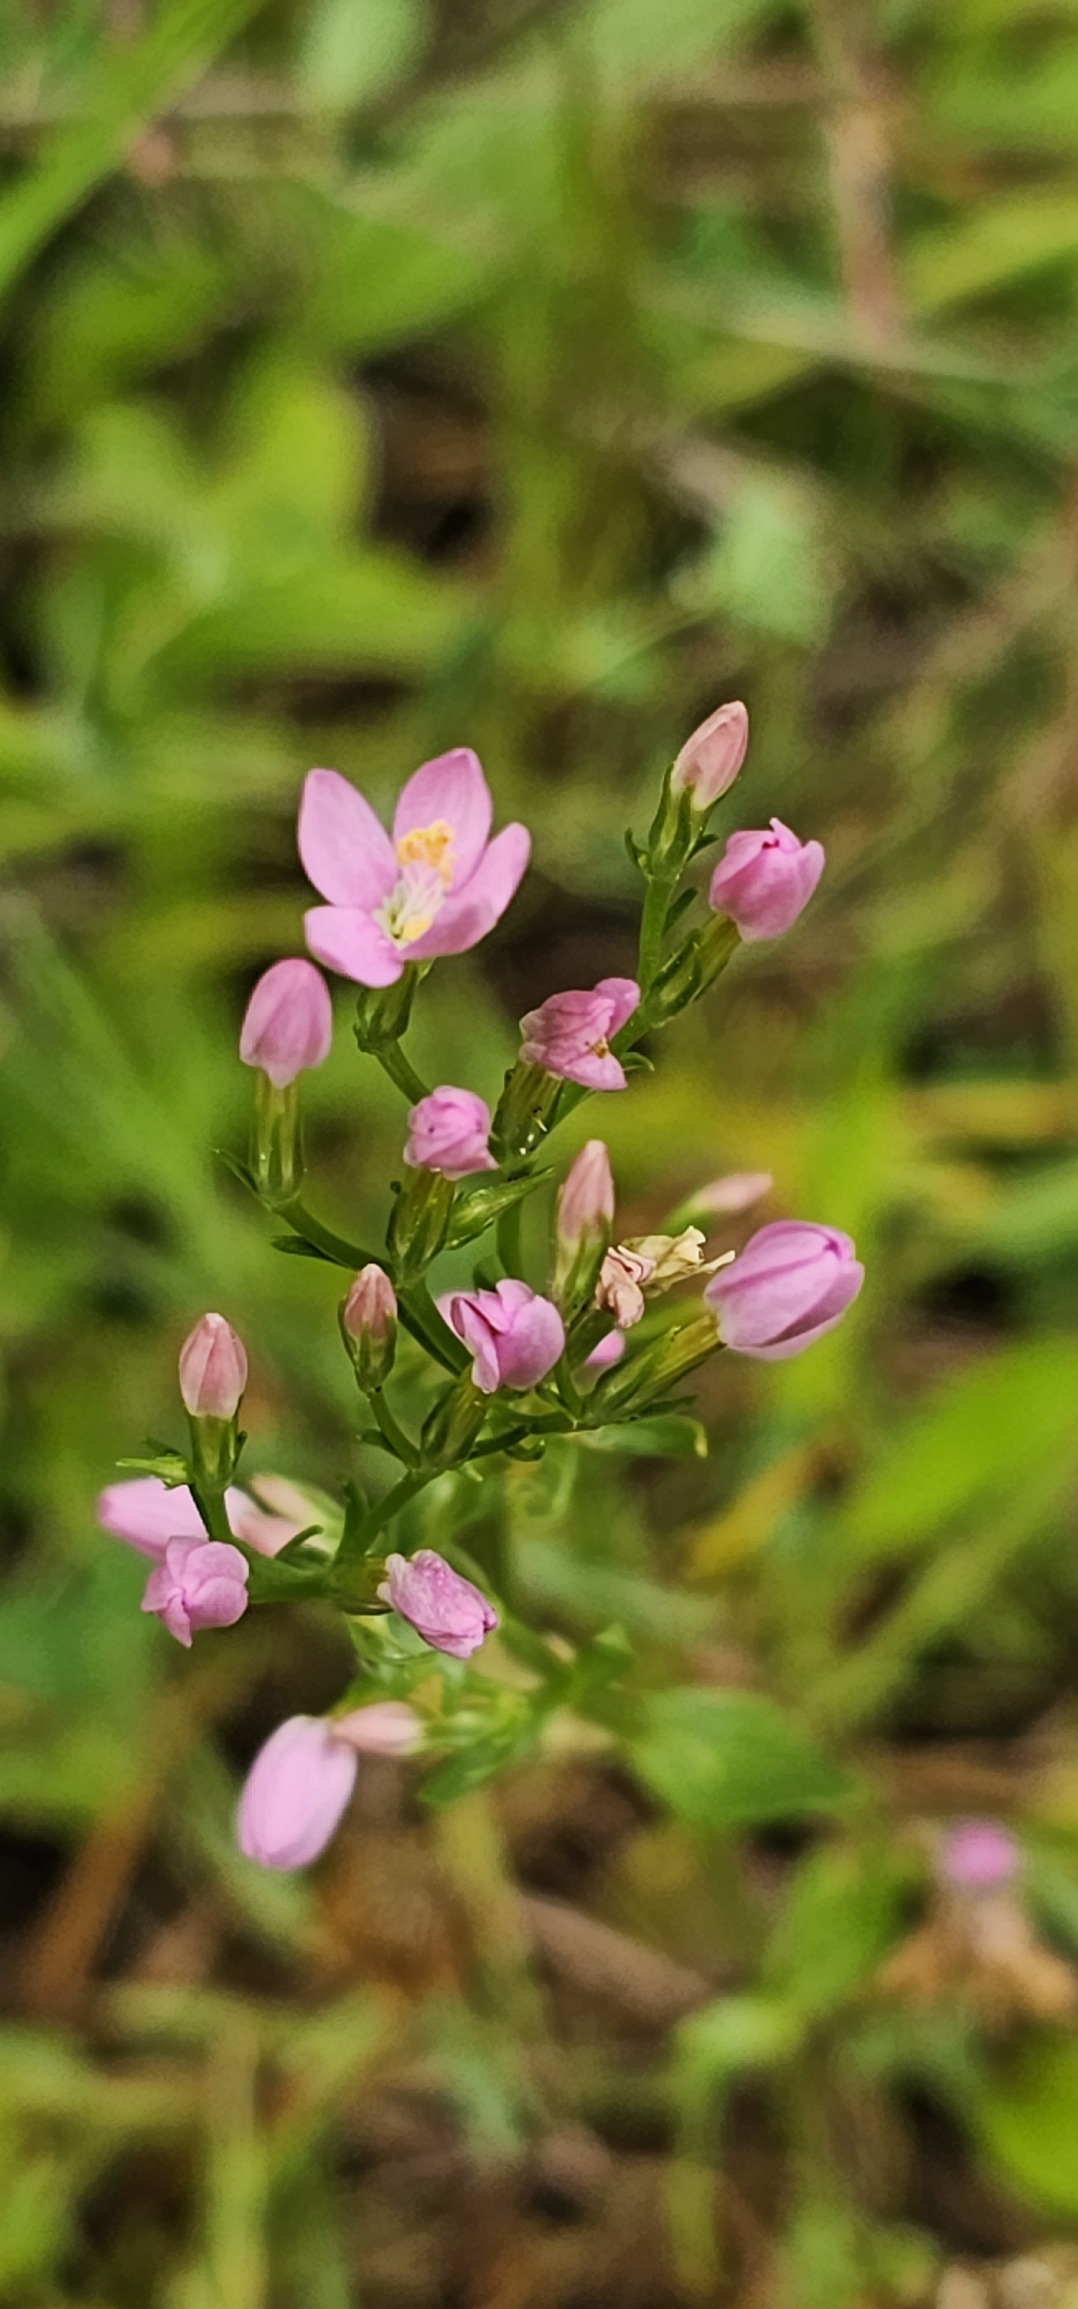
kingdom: Plantae
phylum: Tracheophyta
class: Magnoliopsida
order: Gentianales
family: Gentianaceae
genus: Centaurium
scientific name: Centaurium erythraea
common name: Mark-tusindgylden
